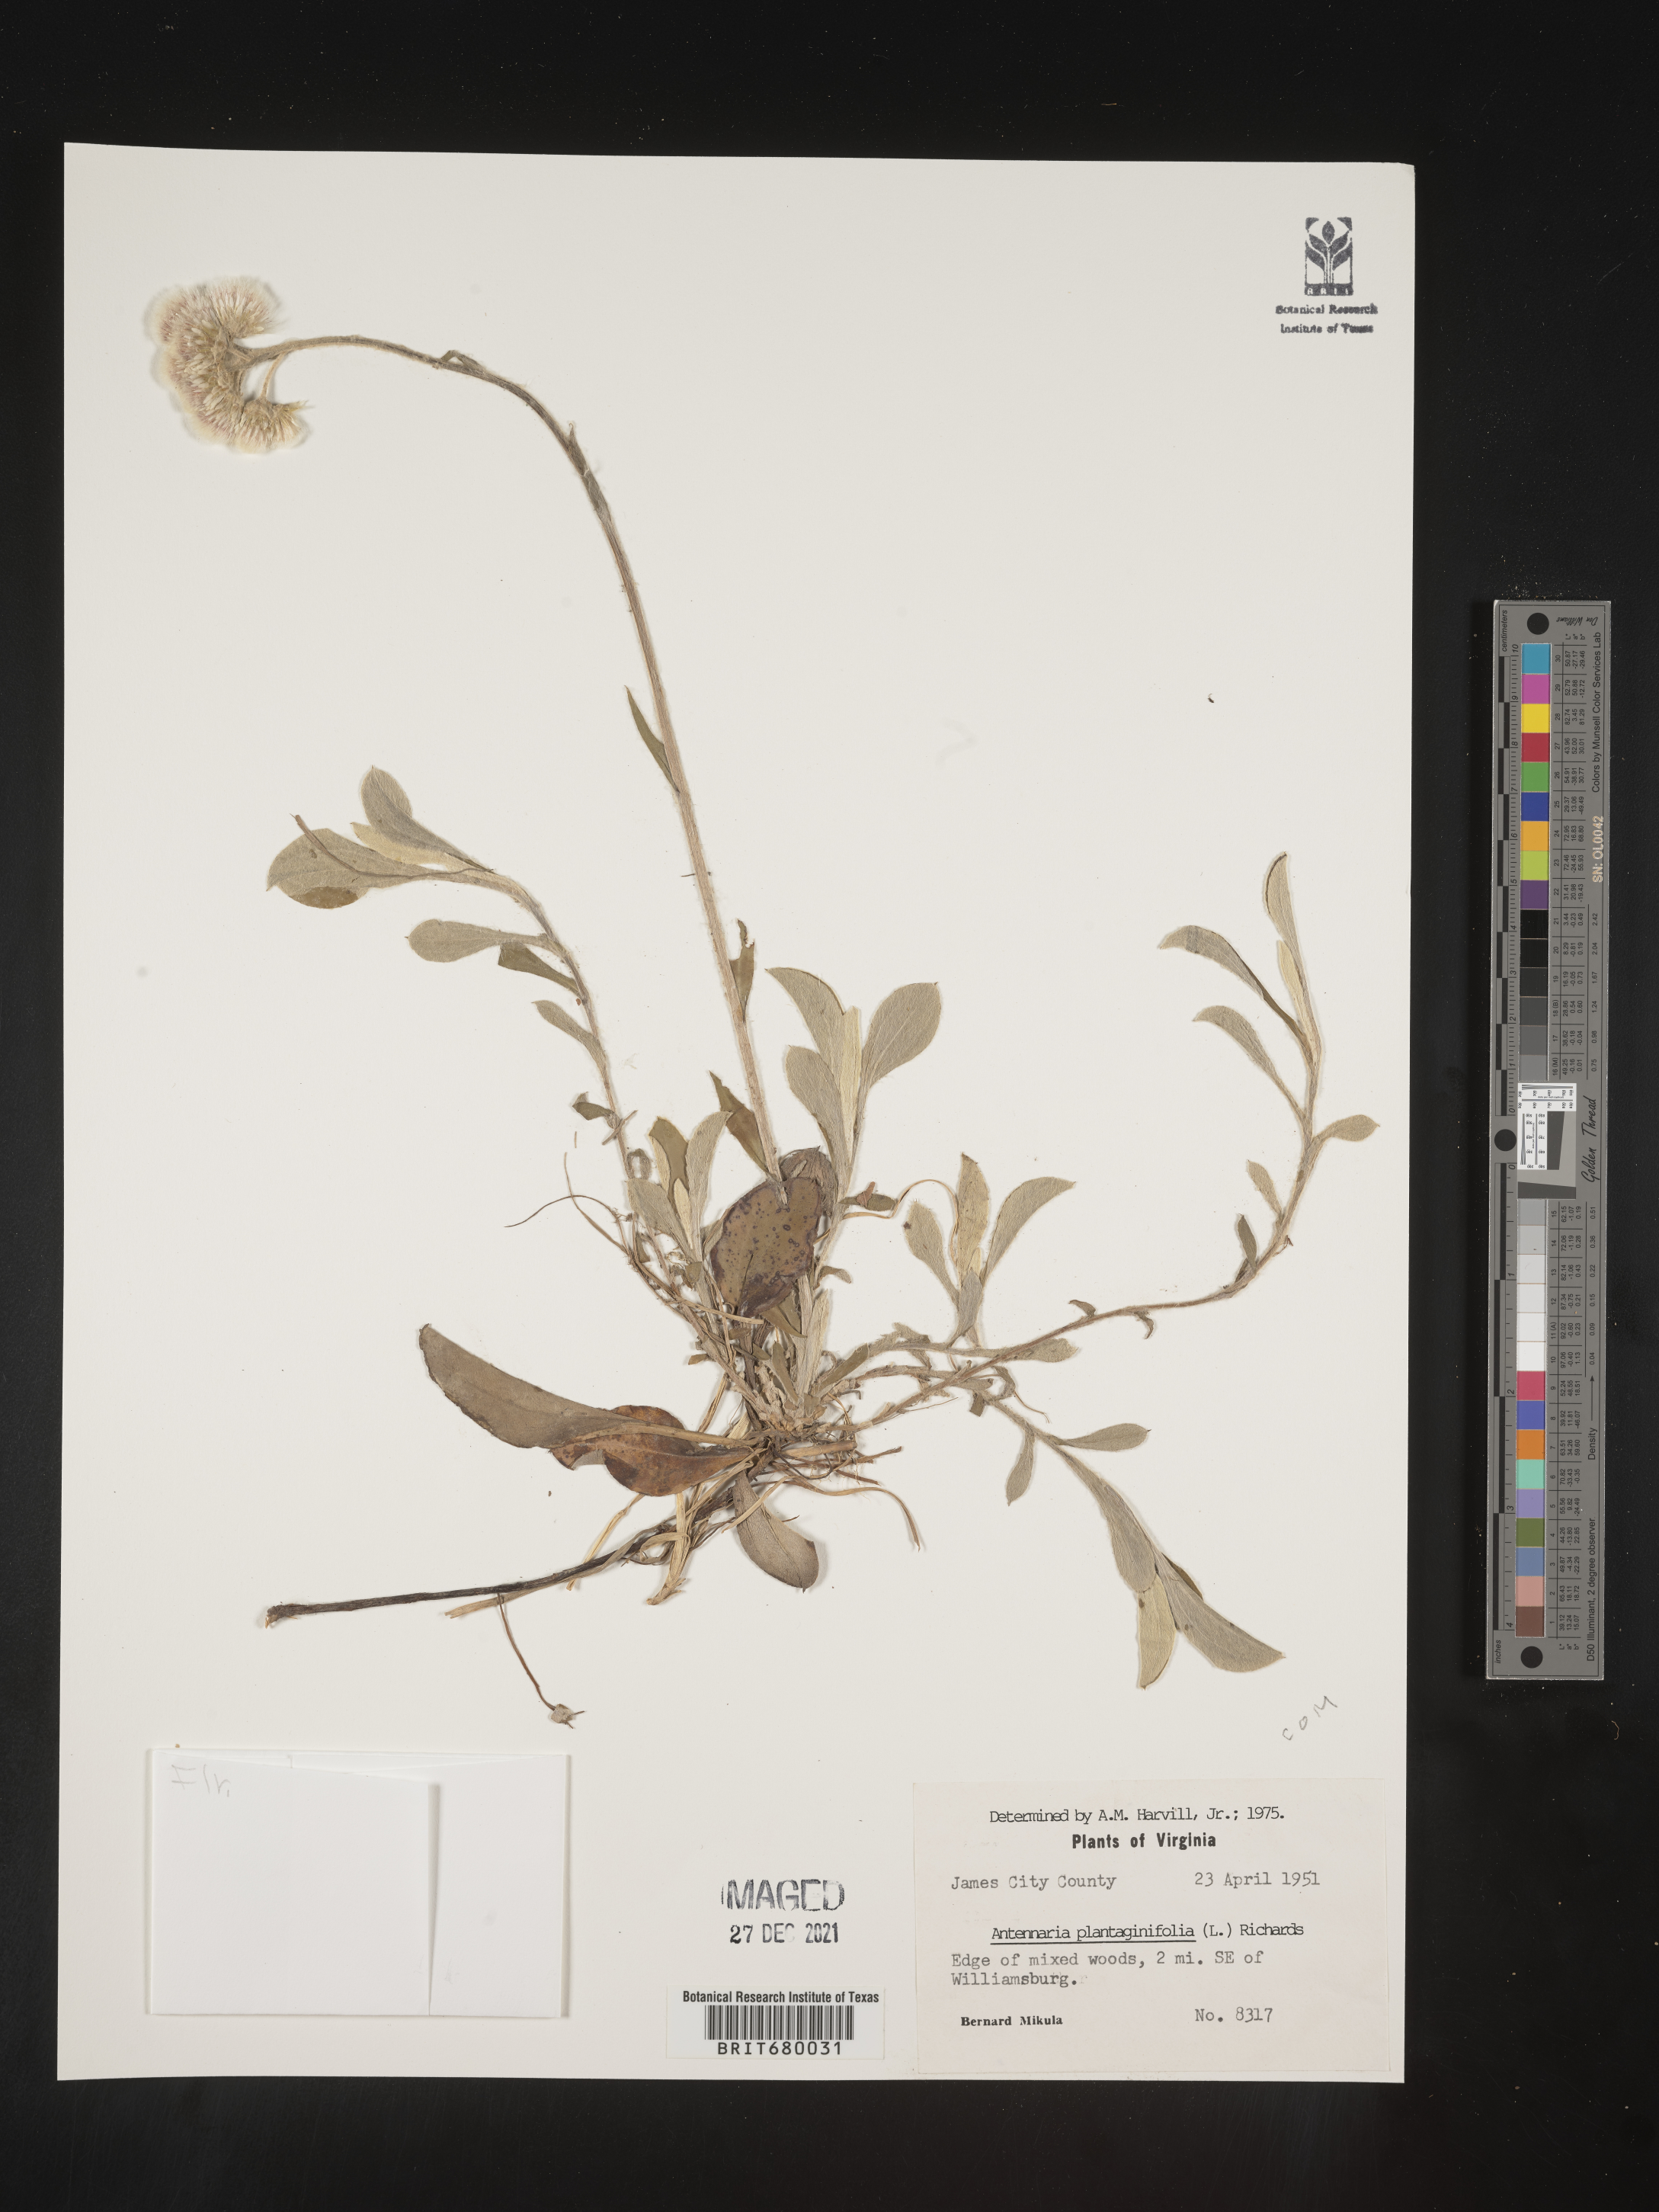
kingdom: Plantae
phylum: Tracheophyta
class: Magnoliopsida
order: Asterales
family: Asteraceae
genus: Antennaria
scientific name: Antennaria plantaginifolia
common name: Plantain-leaved pussytoes
